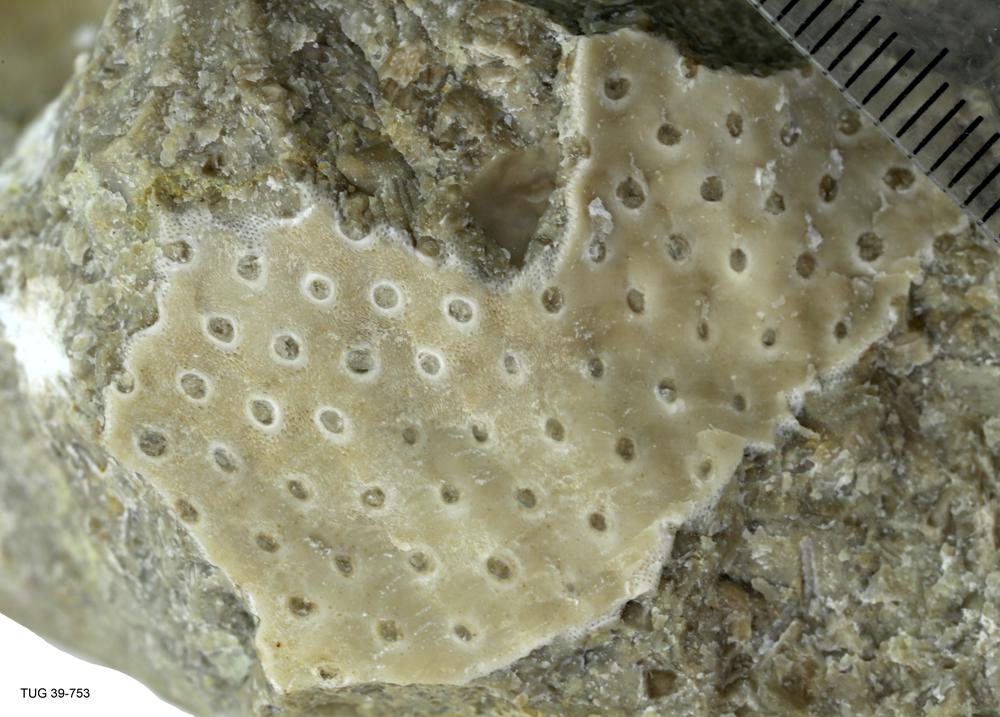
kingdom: Animalia
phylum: Bryozoa
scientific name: Bryozoa
